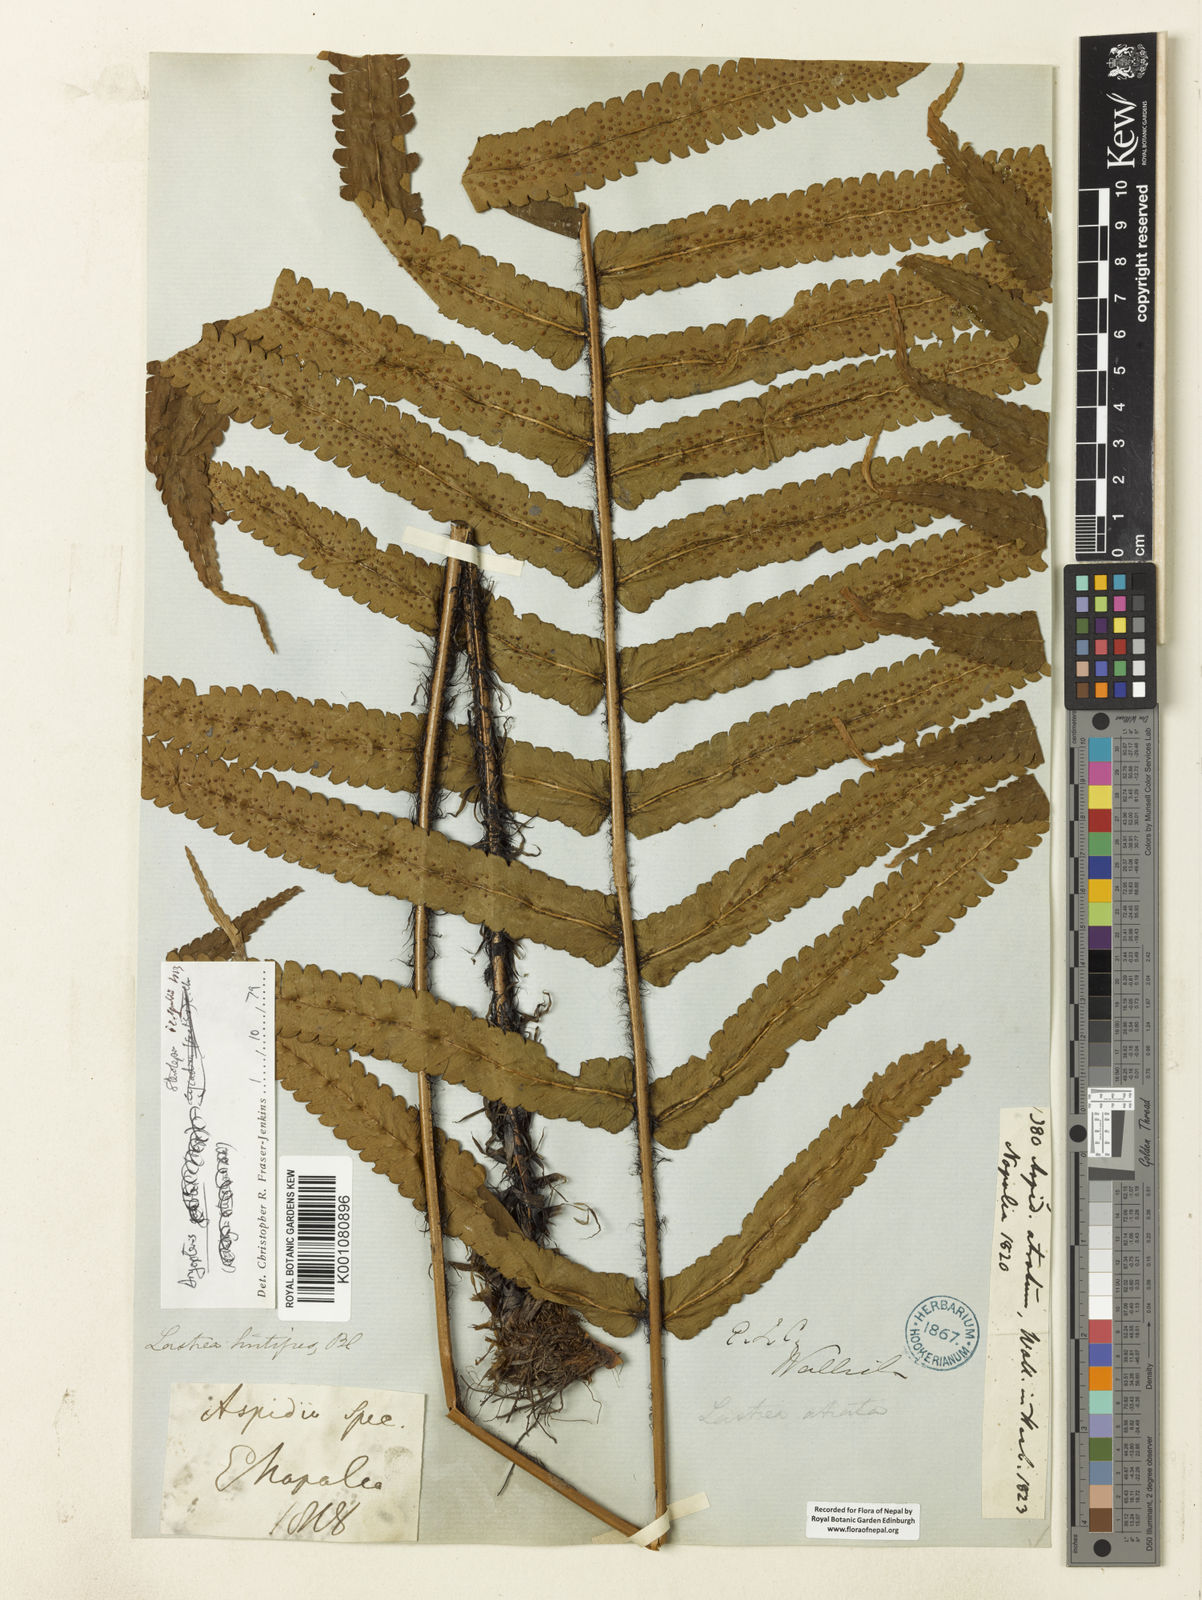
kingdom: Plantae
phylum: Tracheophyta
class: Polypodiopsida
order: Polypodiales
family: Dryopteridaceae
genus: Dryopteris
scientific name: Dryopteris stenolepis
